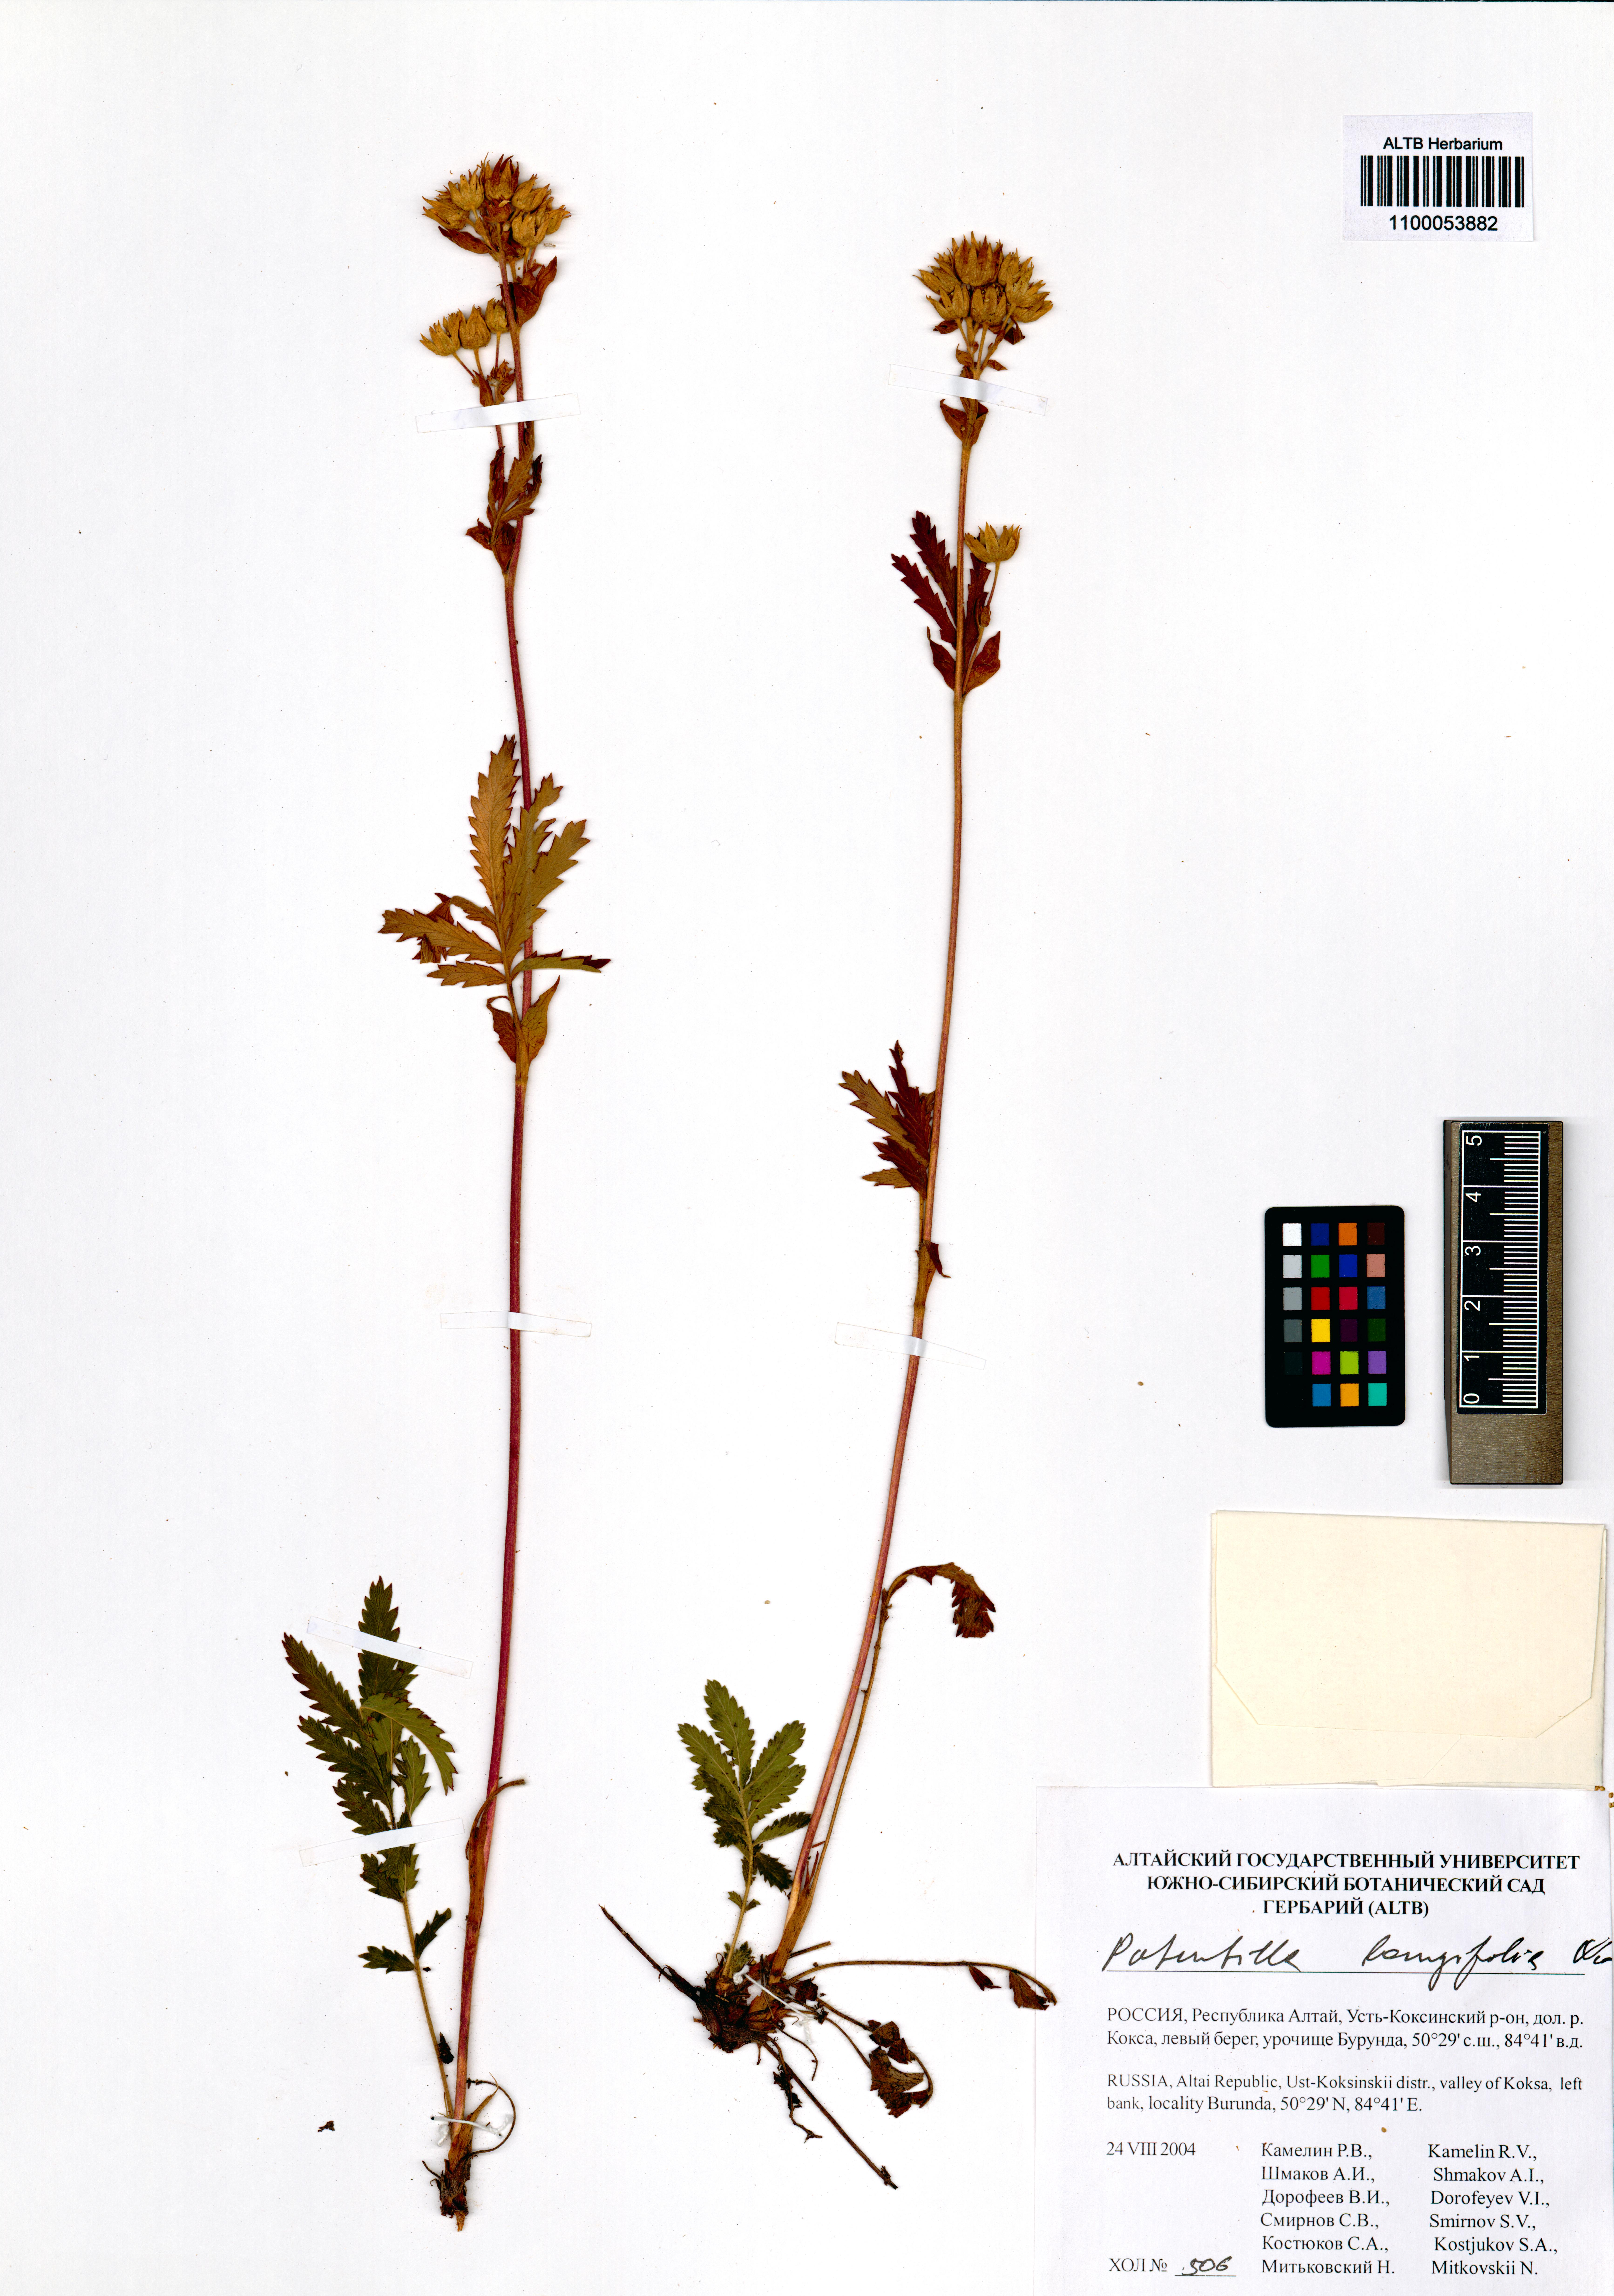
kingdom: Plantae
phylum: Tracheophyta
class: Magnoliopsida
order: Rosales
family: Rosaceae
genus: Potentilla
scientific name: Potentilla longifolia
